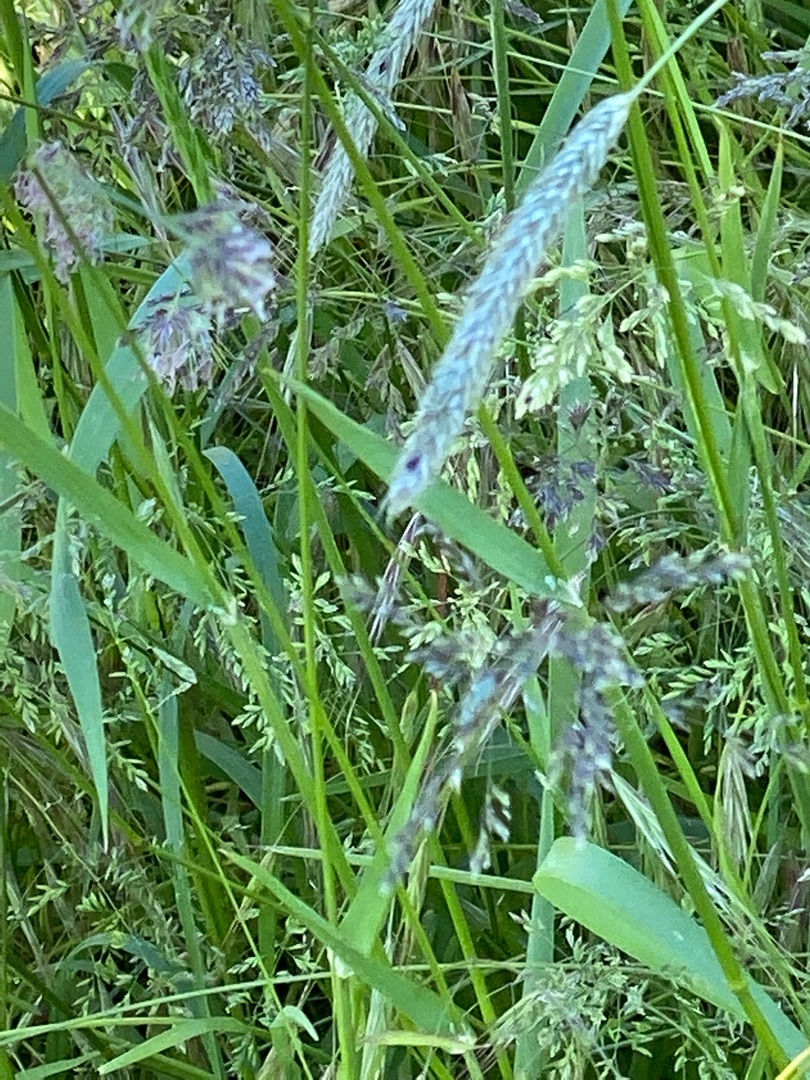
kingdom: Plantae
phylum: Tracheophyta
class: Liliopsida
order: Poales
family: Poaceae
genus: Alopecurus
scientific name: Alopecurus pratensis
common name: Eng-rævehale
